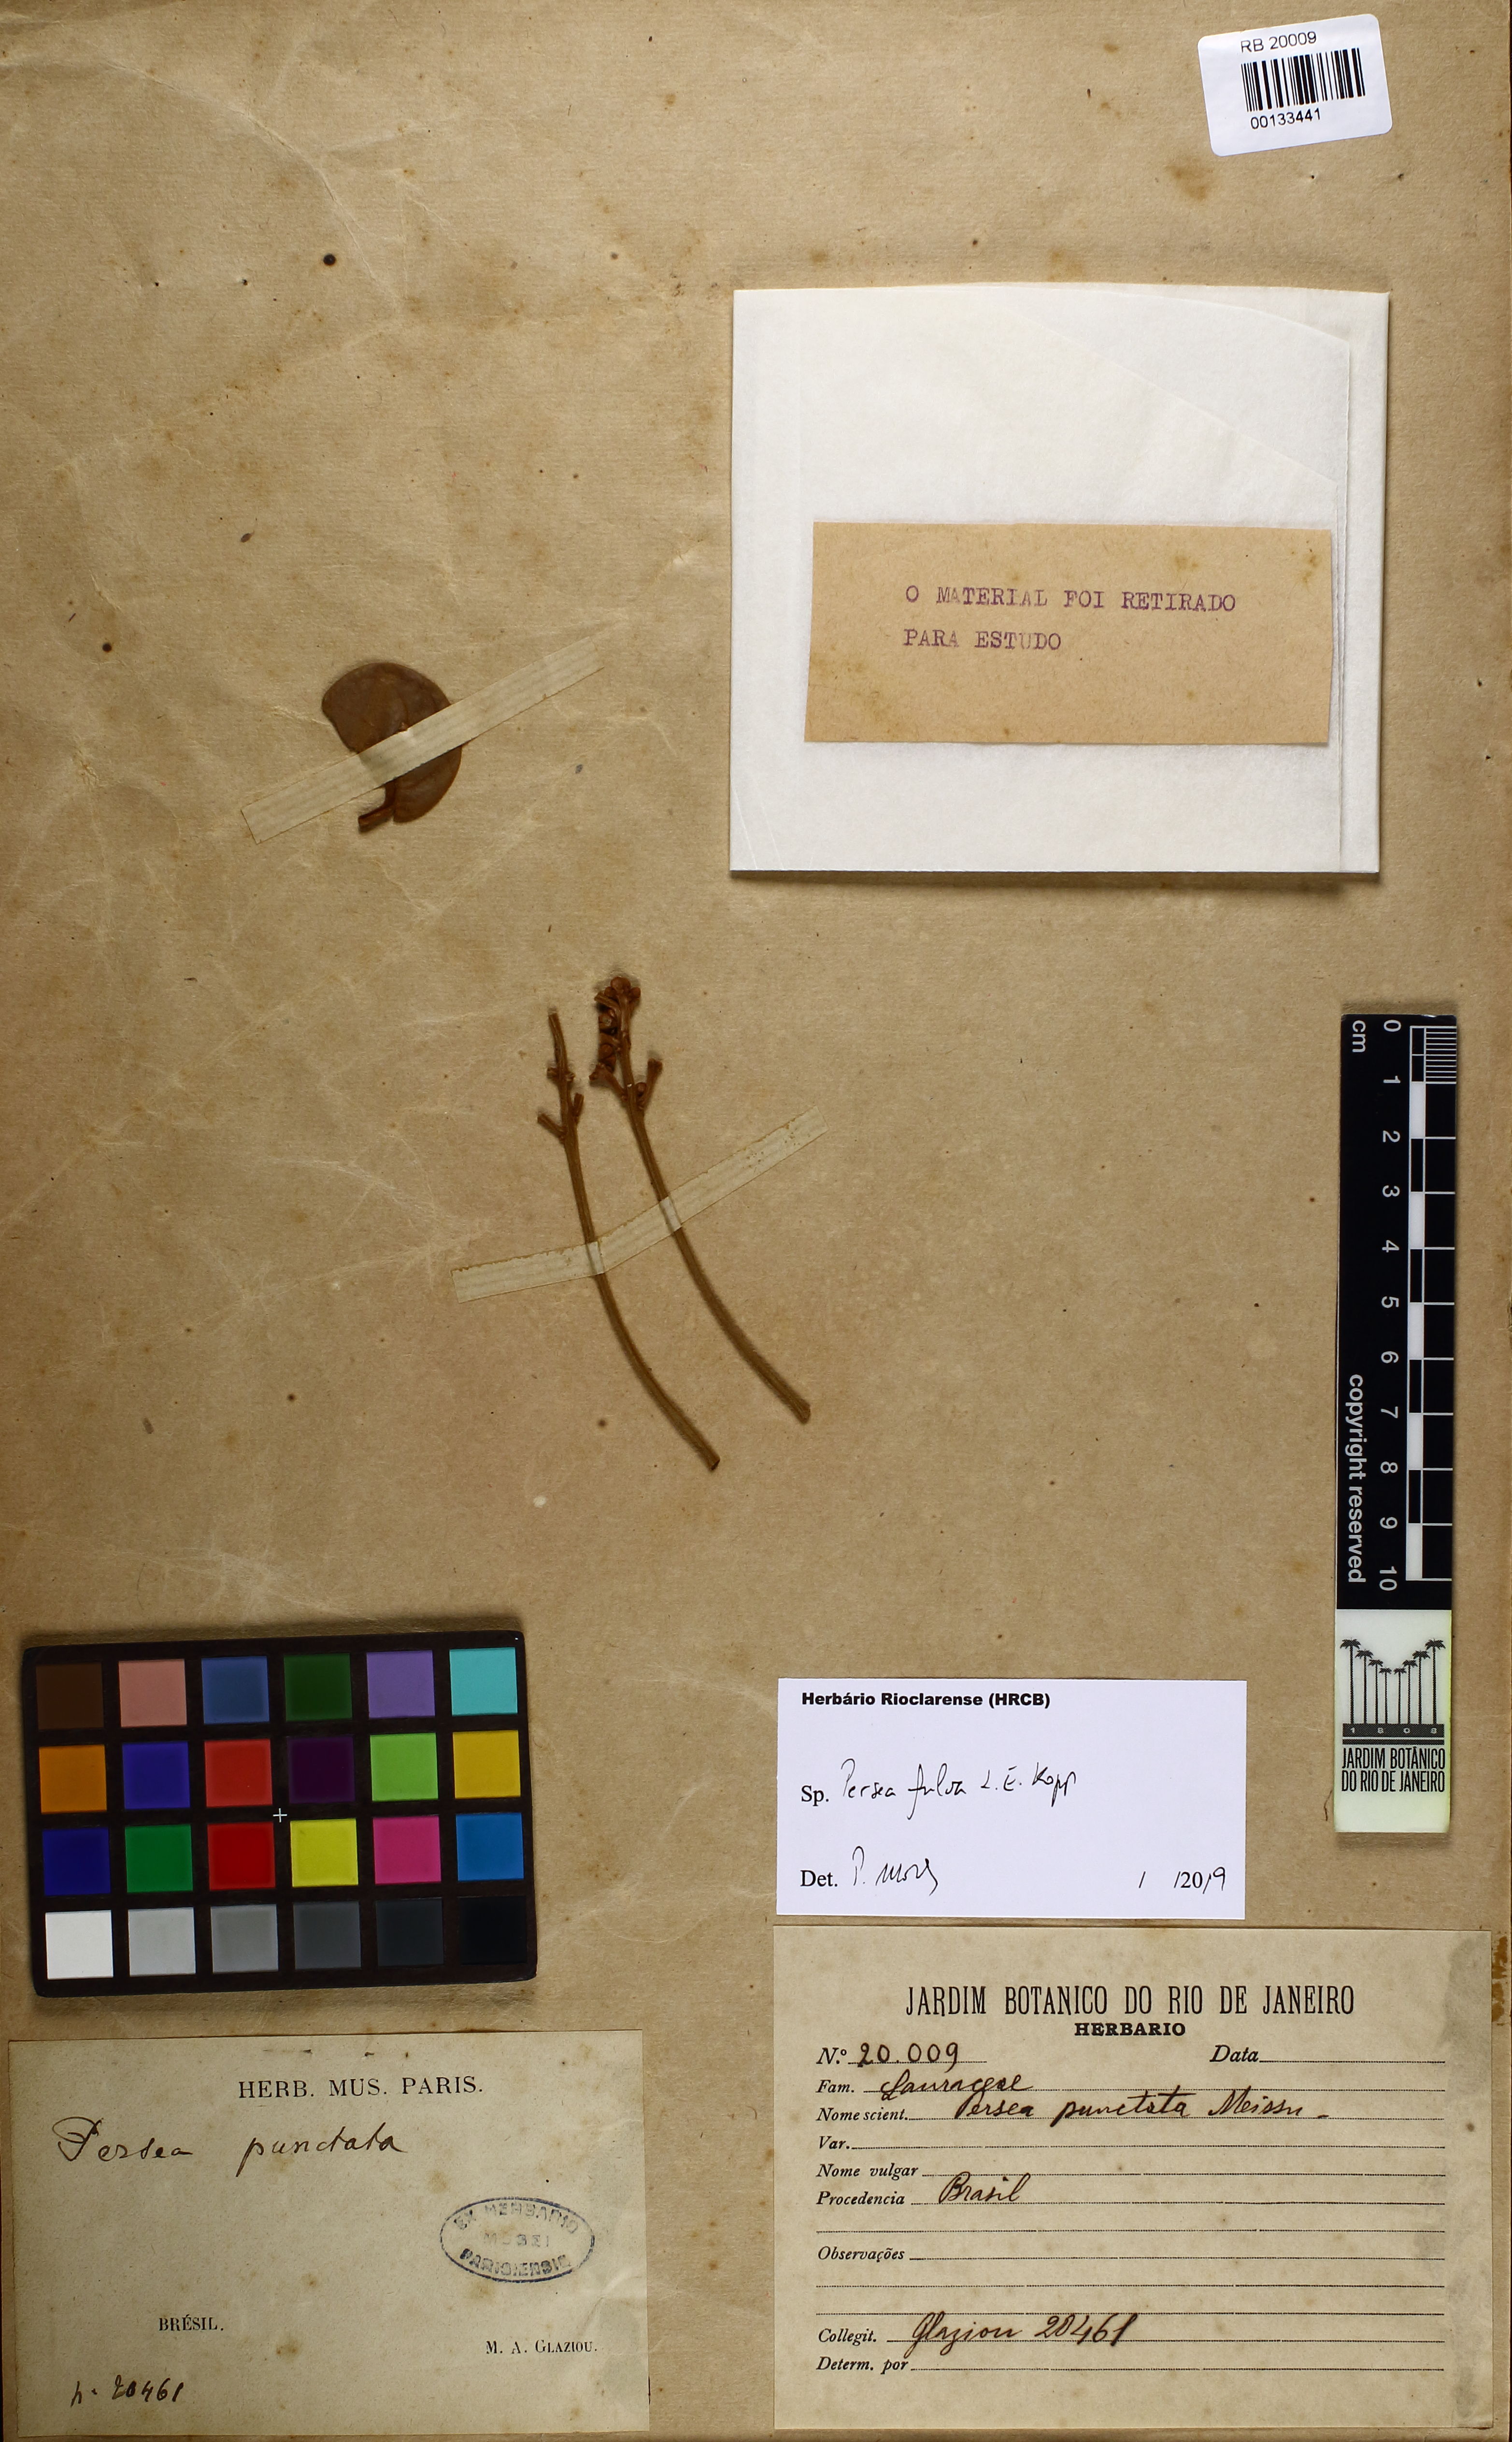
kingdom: Plantae
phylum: Tracheophyta
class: Magnoliopsida
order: Laurales
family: Lauraceae
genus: Persea
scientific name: Persea fulva
